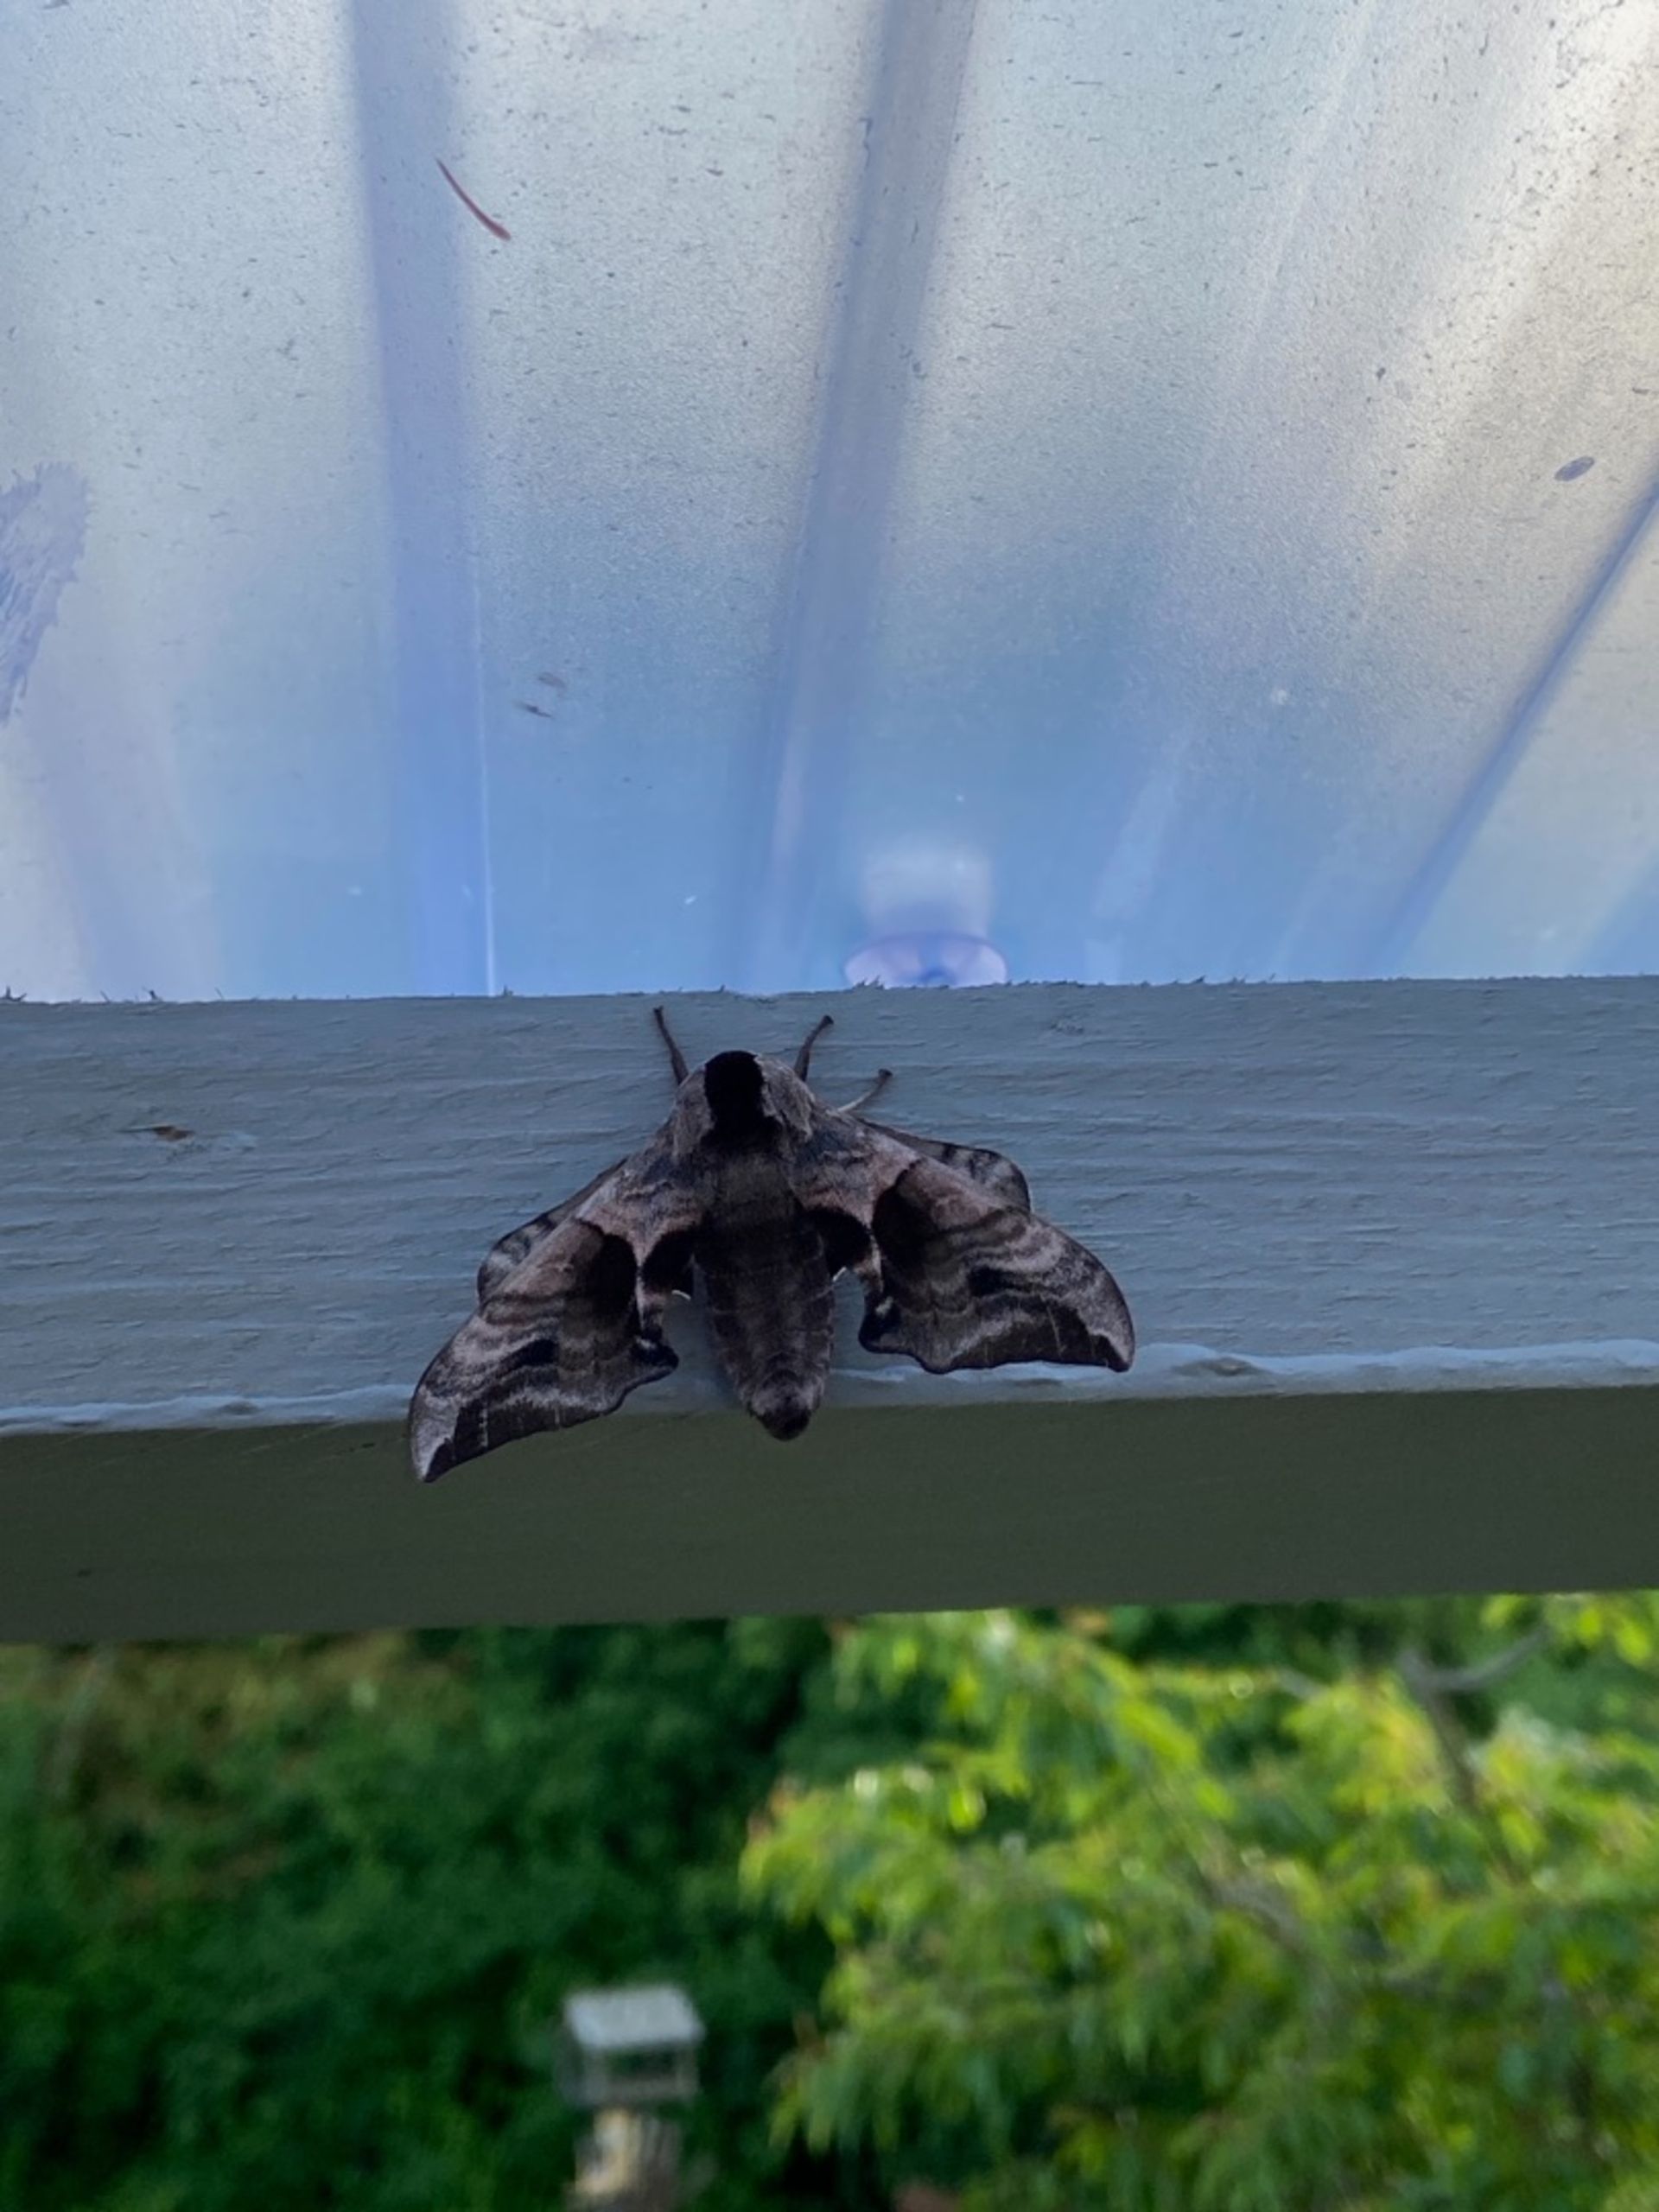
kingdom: Animalia
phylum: Arthropoda
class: Insecta
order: Lepidoptera
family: Sphingidae
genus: Smerinthus
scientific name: Smerinthus ocellata
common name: Aftenpåfugleøje
